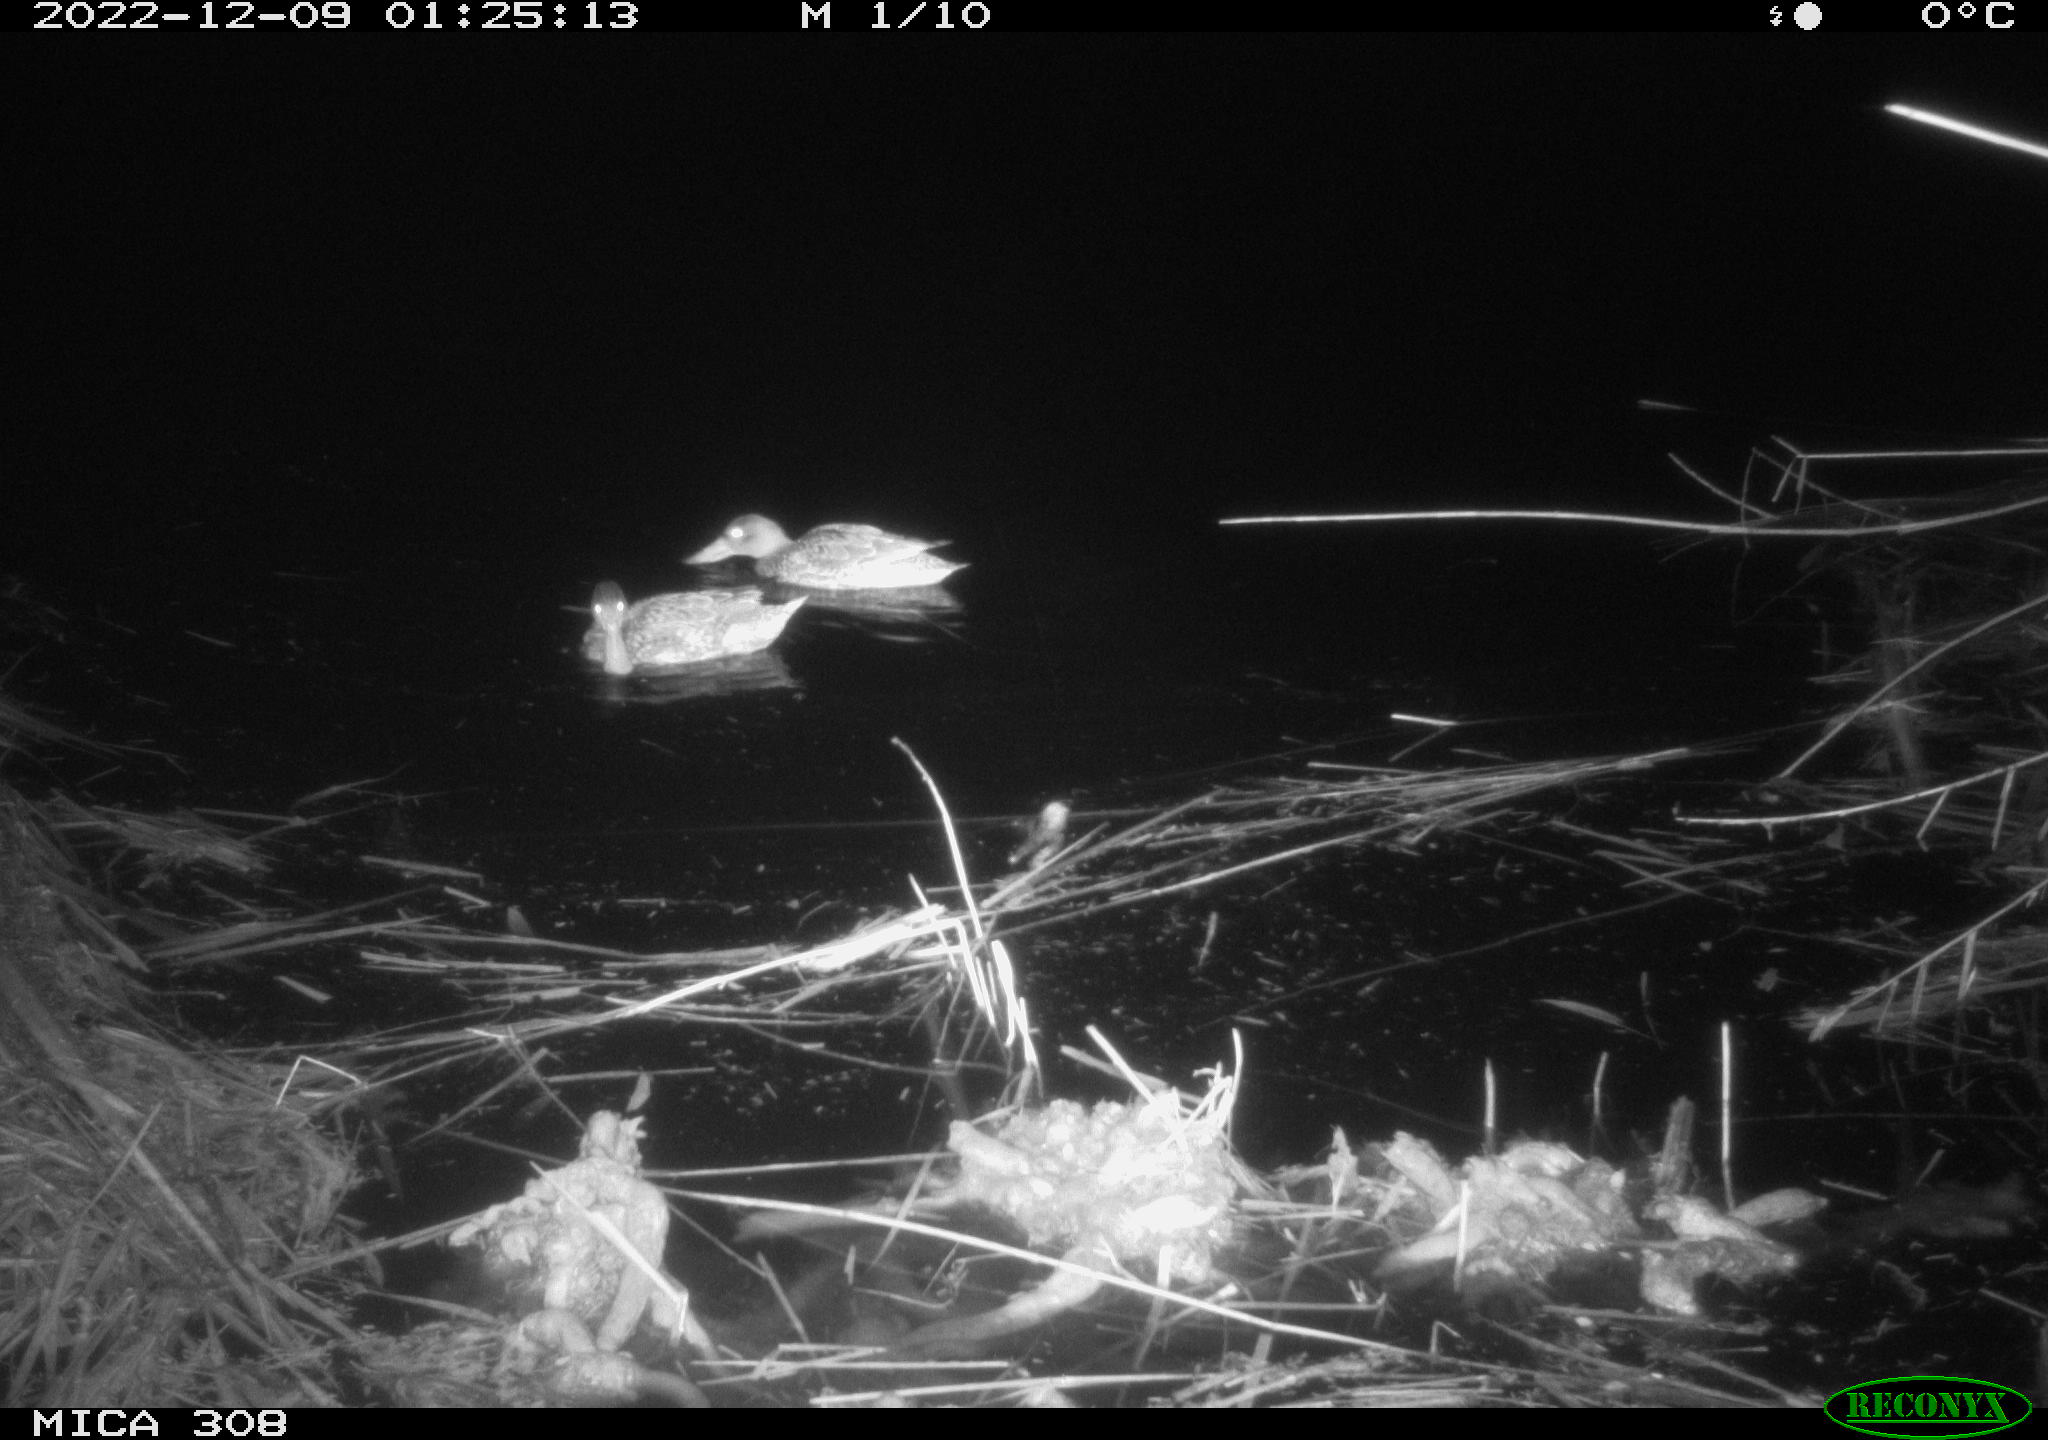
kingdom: Animalia
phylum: Chordata
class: Aves
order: Anseriformes
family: Anatidae
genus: Anas
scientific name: Anas
